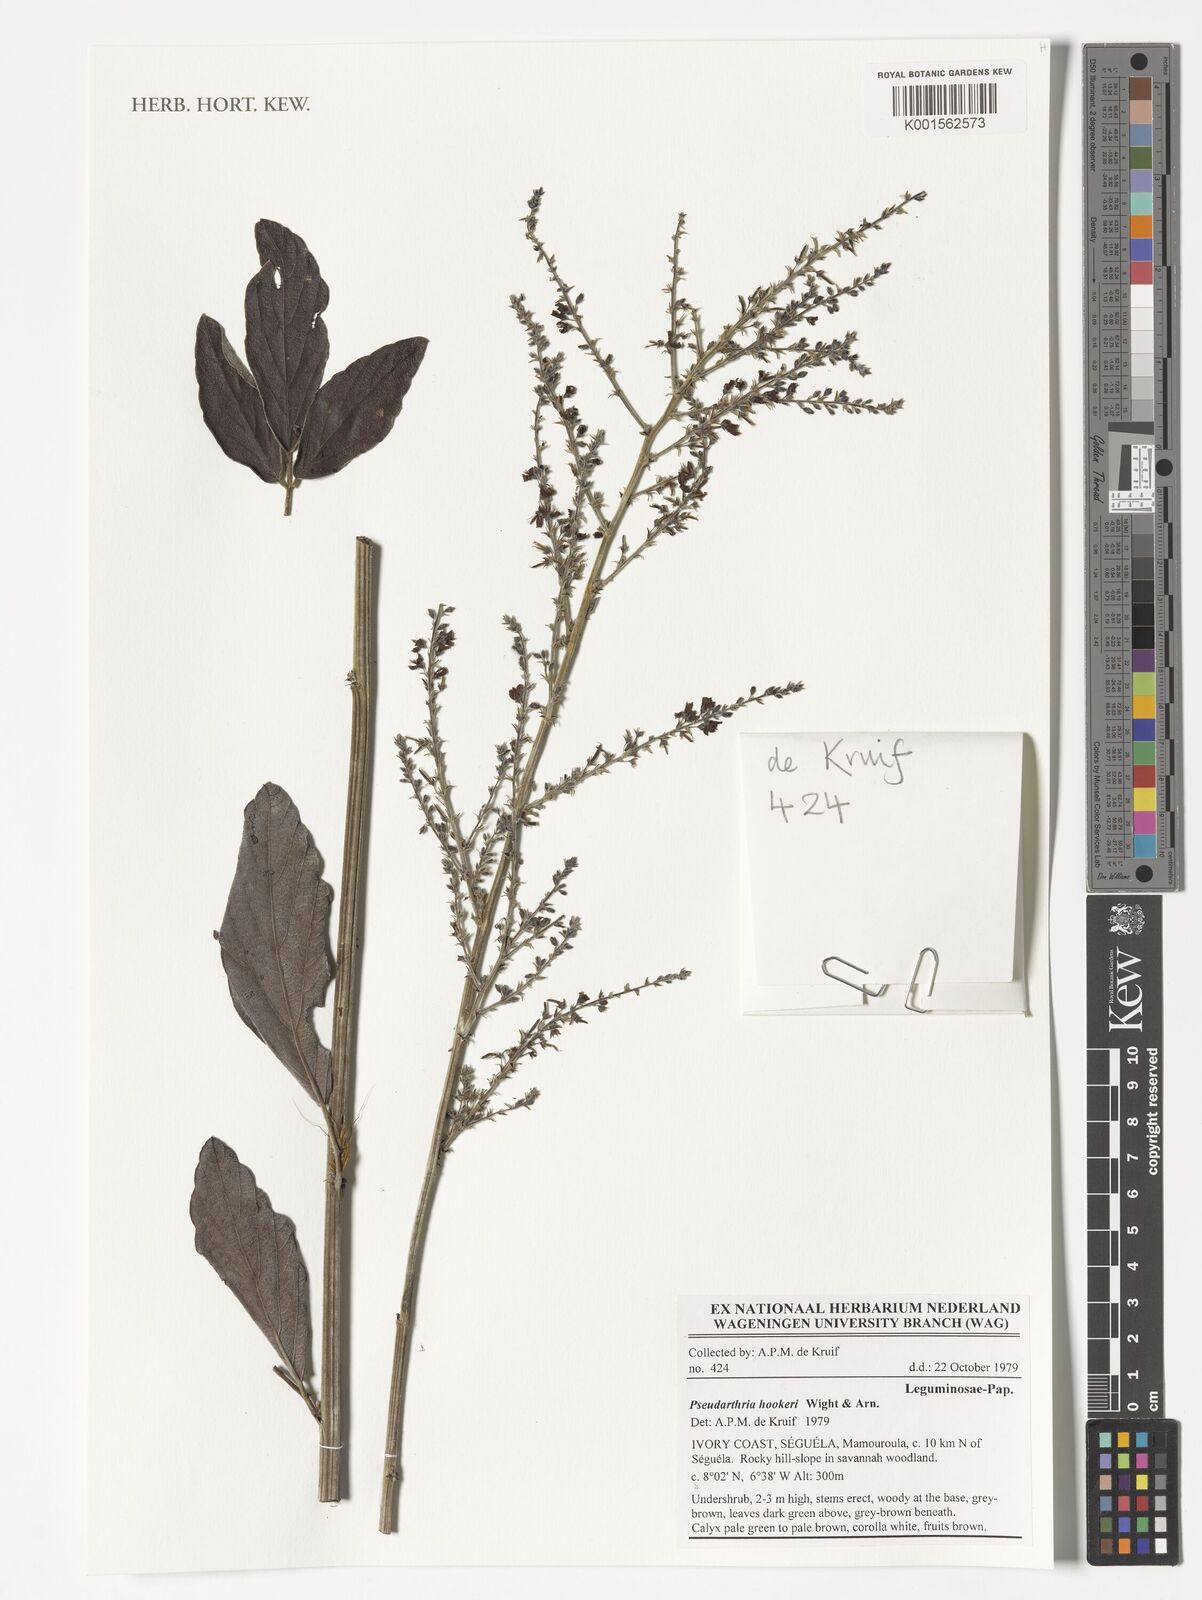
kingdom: Plantae
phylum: Tracheophyta
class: Magnoliopsida
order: Fabales
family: Fabaceae
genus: Pseudarthria
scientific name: Pseudarthria hookeri
